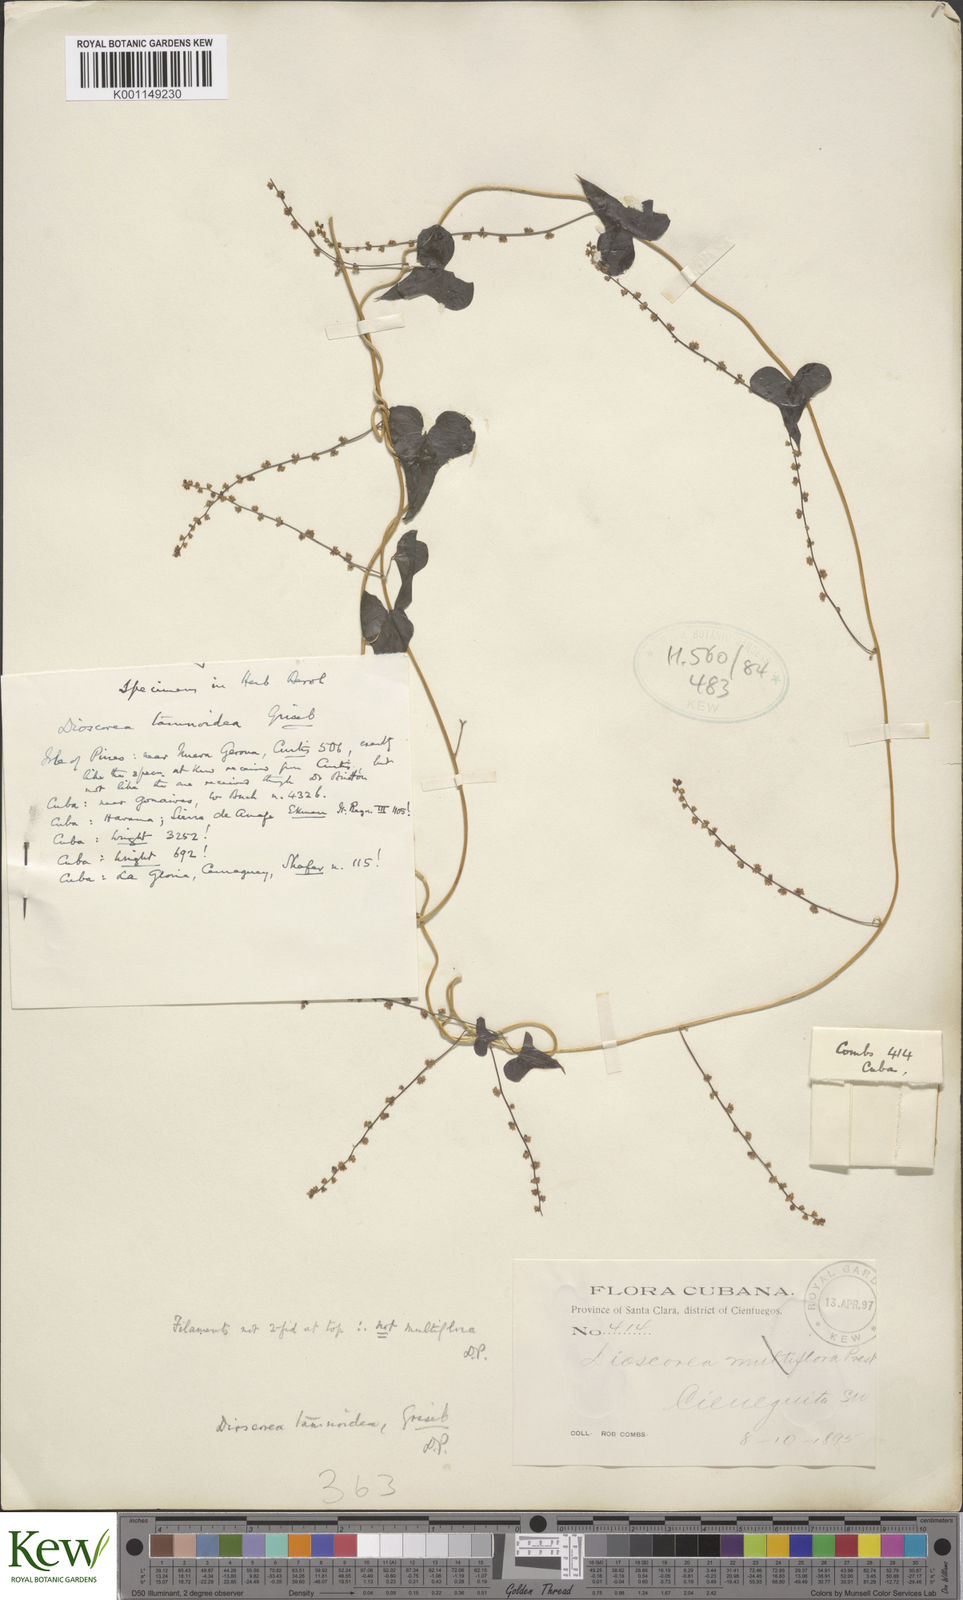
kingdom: Plantae
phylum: Tracheophyta
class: Liliopsida
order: Dioscoreales
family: Dioscoreaceae
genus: Dioscorea
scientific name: Dioscorea tamoidea
